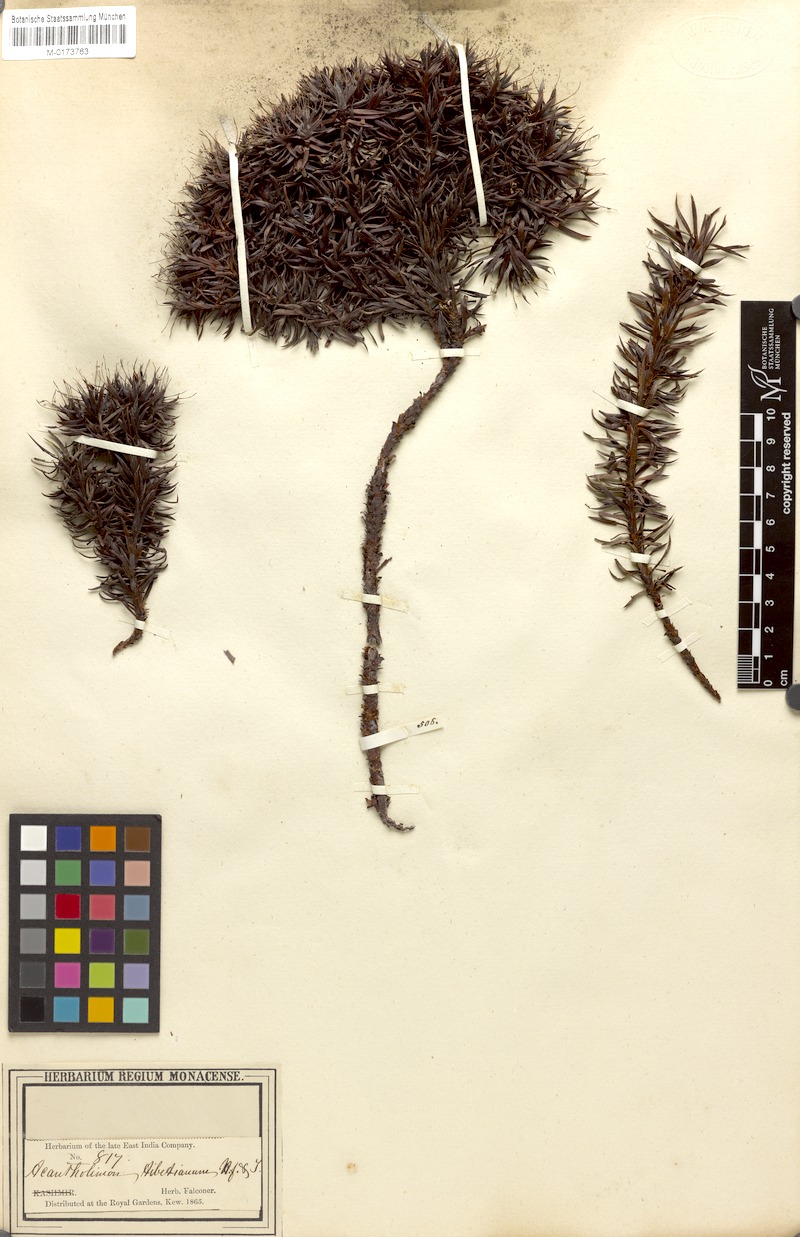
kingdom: Plantae
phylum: Tracheophyta
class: Magnoliopsida
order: Caryophyllales
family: Plumbaginaceae
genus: Acantholimon
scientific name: Acantholimon lycopodioides
